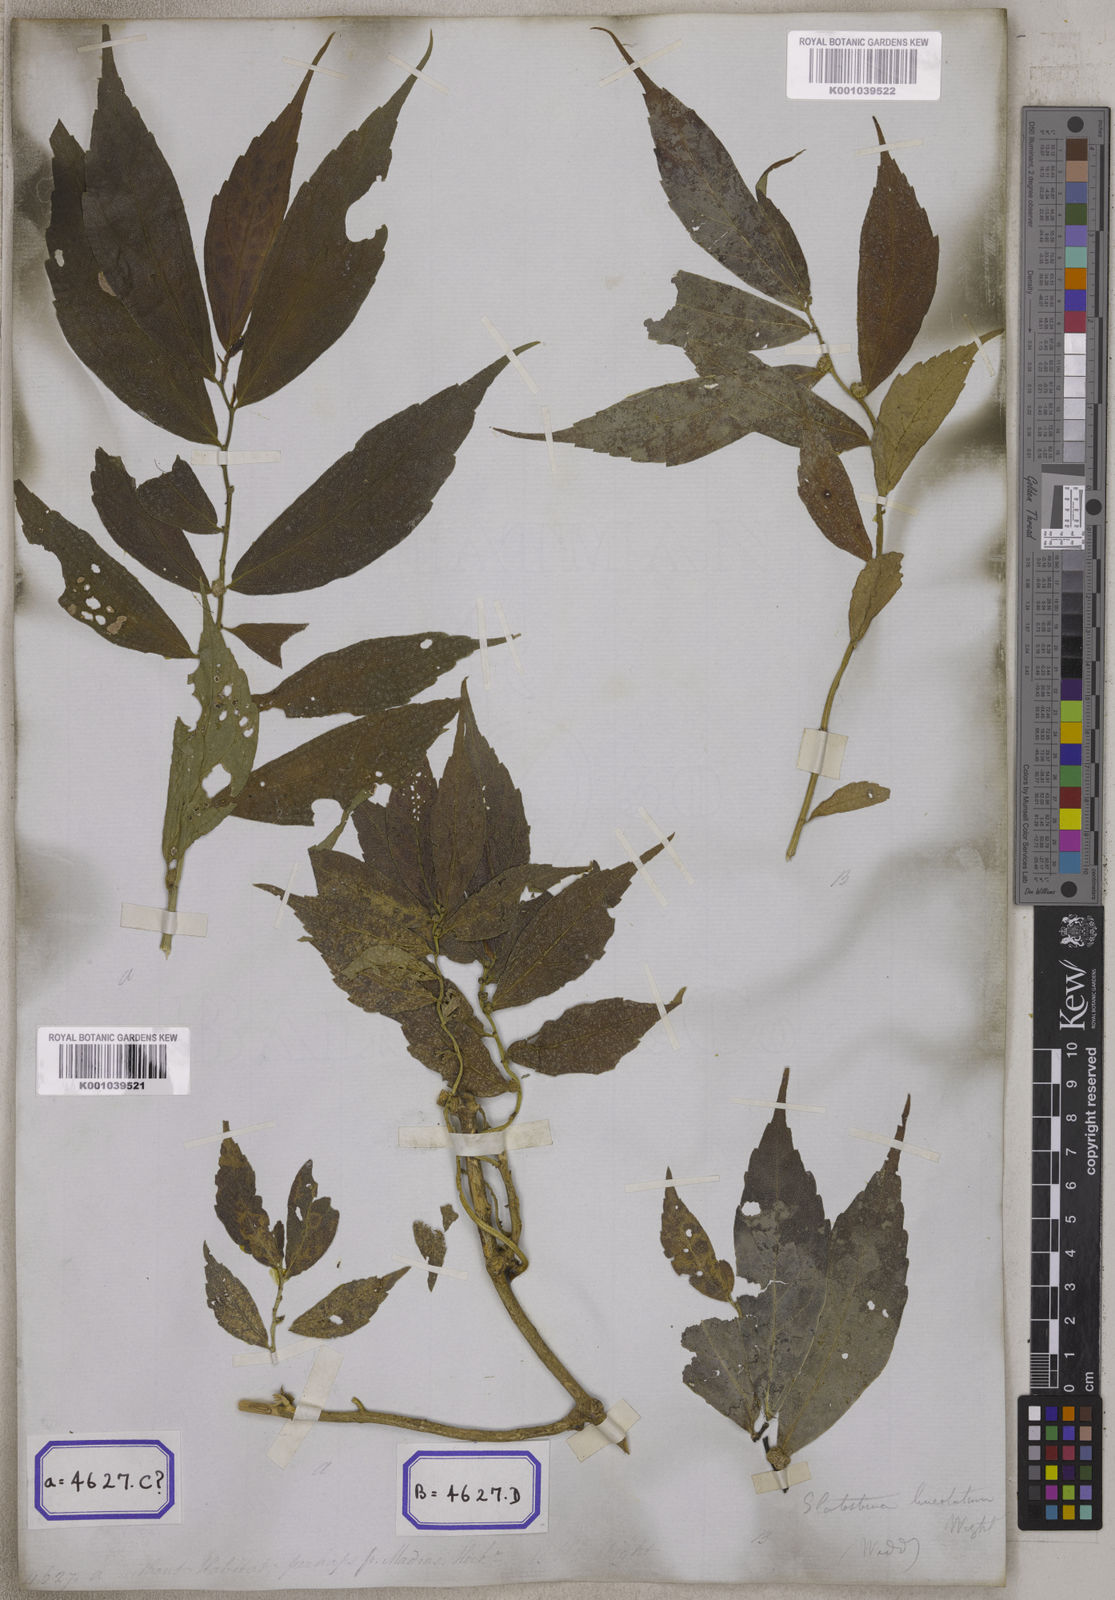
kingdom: Plantae
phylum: Tracheophyta
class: Magnoliopsida
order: Rosales
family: Urticaceae
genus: Procris
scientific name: Procris
